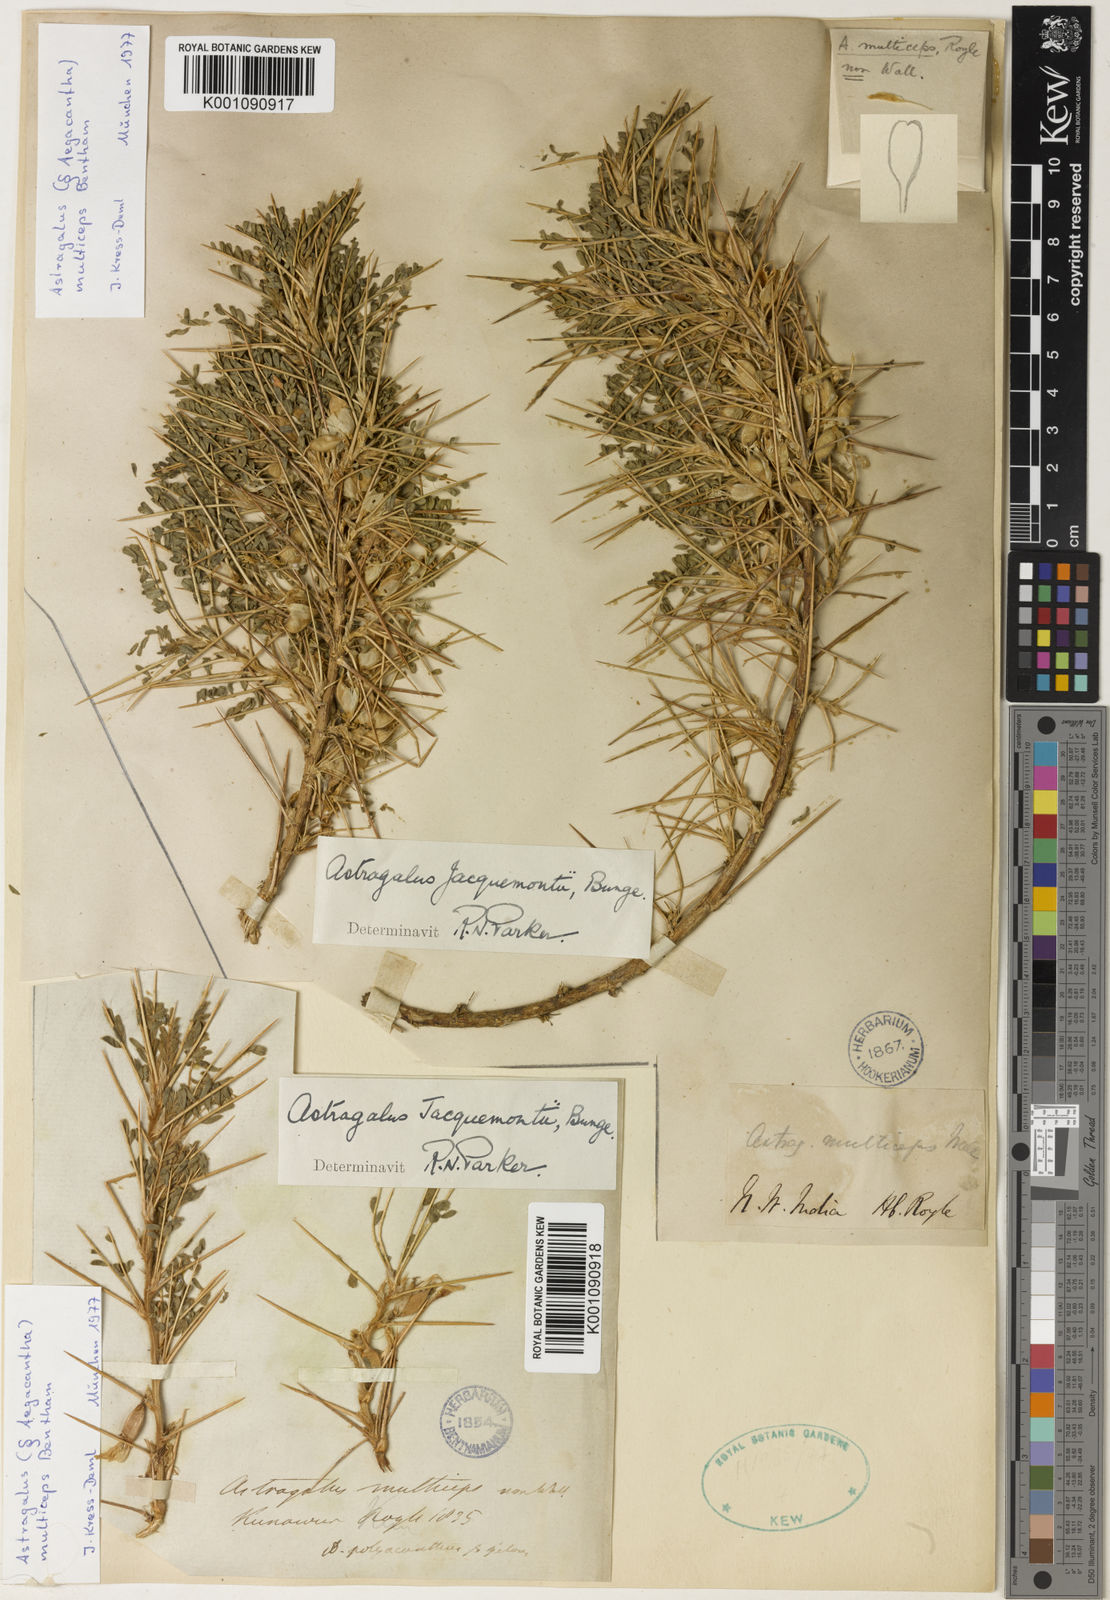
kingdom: Plantae
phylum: Tracheophyta
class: Magnoliopsida
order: Fabales
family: Fabaceae
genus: Astragalus
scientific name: Astragalus
